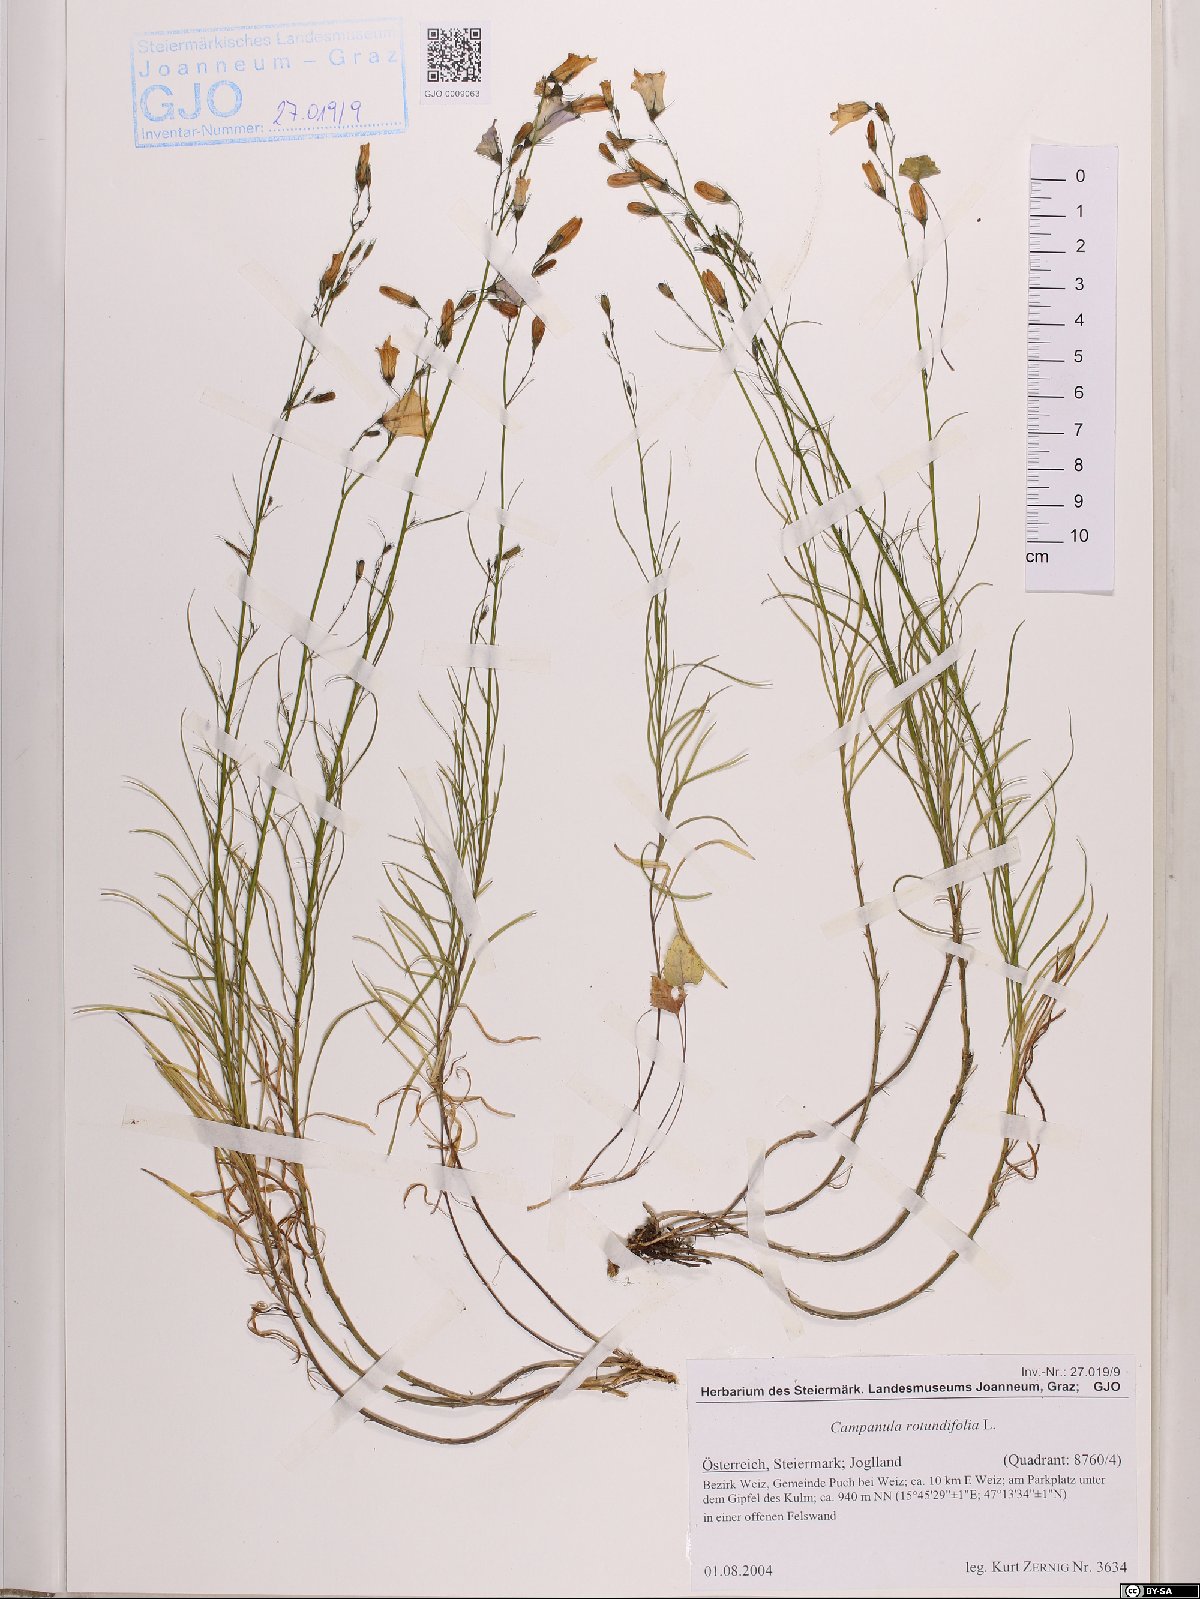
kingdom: Plantae
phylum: Tracheophyta
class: Magnoliopsida
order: Asterales
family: Campanulaceae
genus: Campanula
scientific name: Campanula rotundifolia
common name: Harebell
